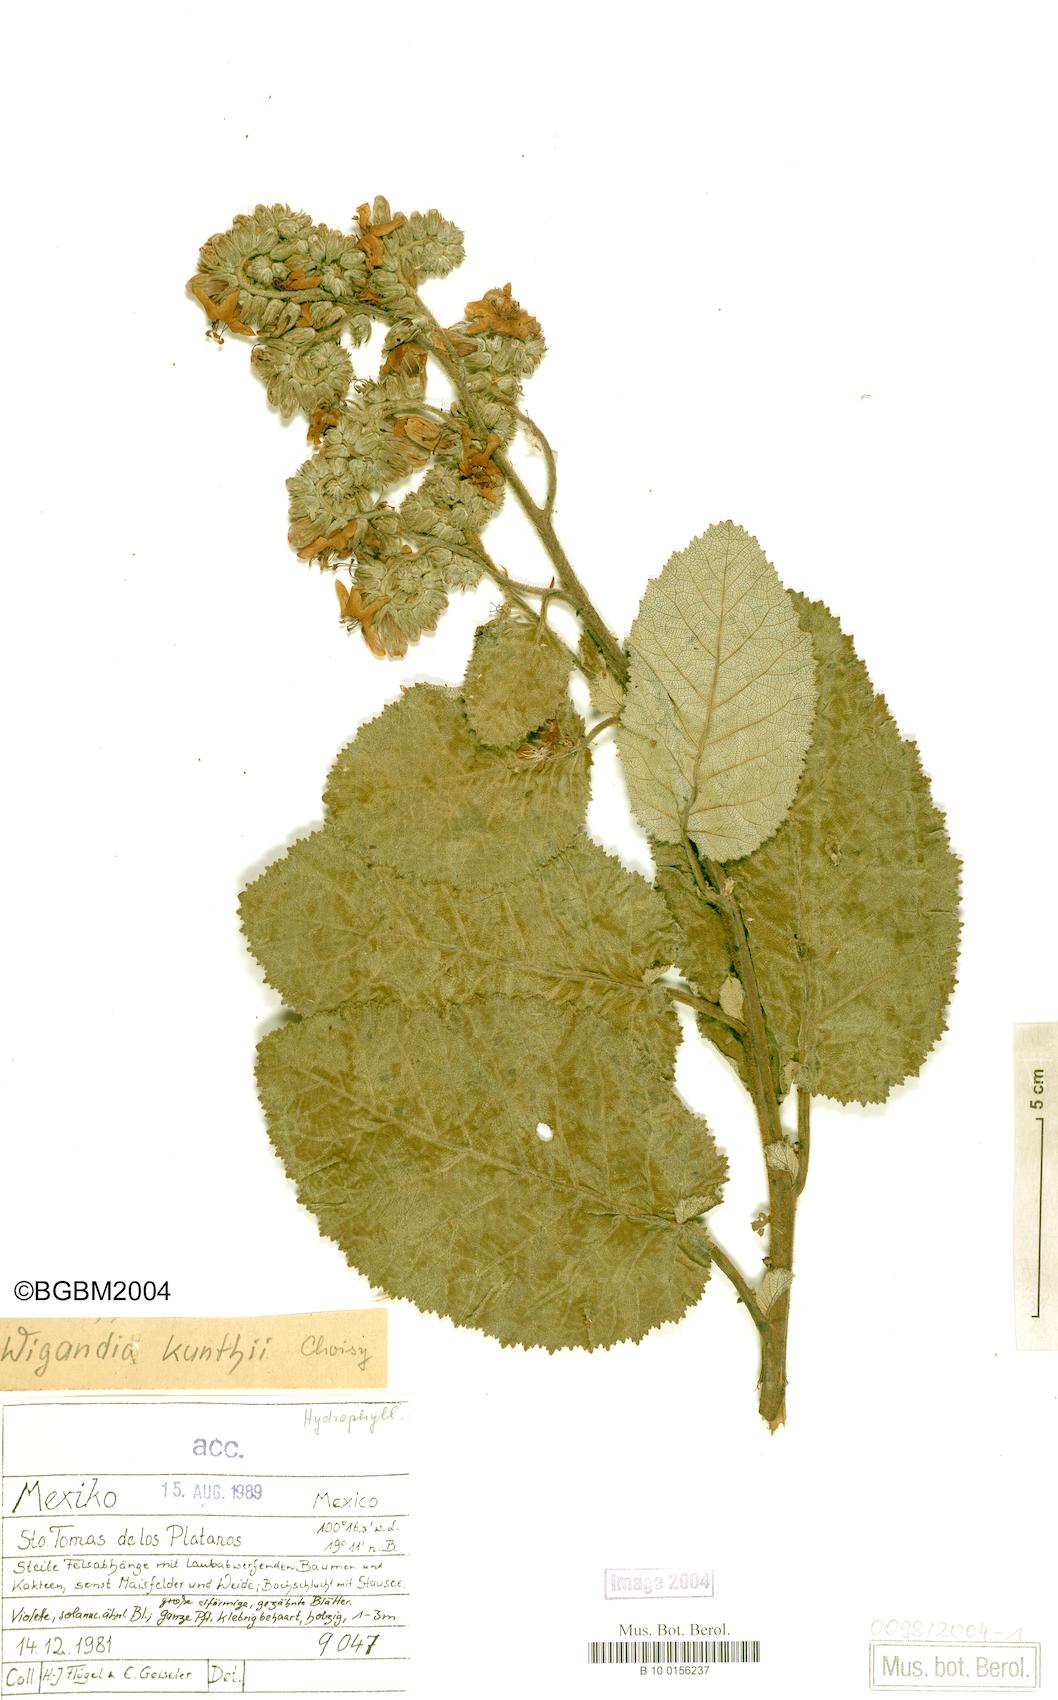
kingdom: Plantae
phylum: Tracheophyta
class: Magnoliopsida
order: Boraginales
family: Namaceae
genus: Wigandia
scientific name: Wigandia urens
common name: Caracus wigandia
